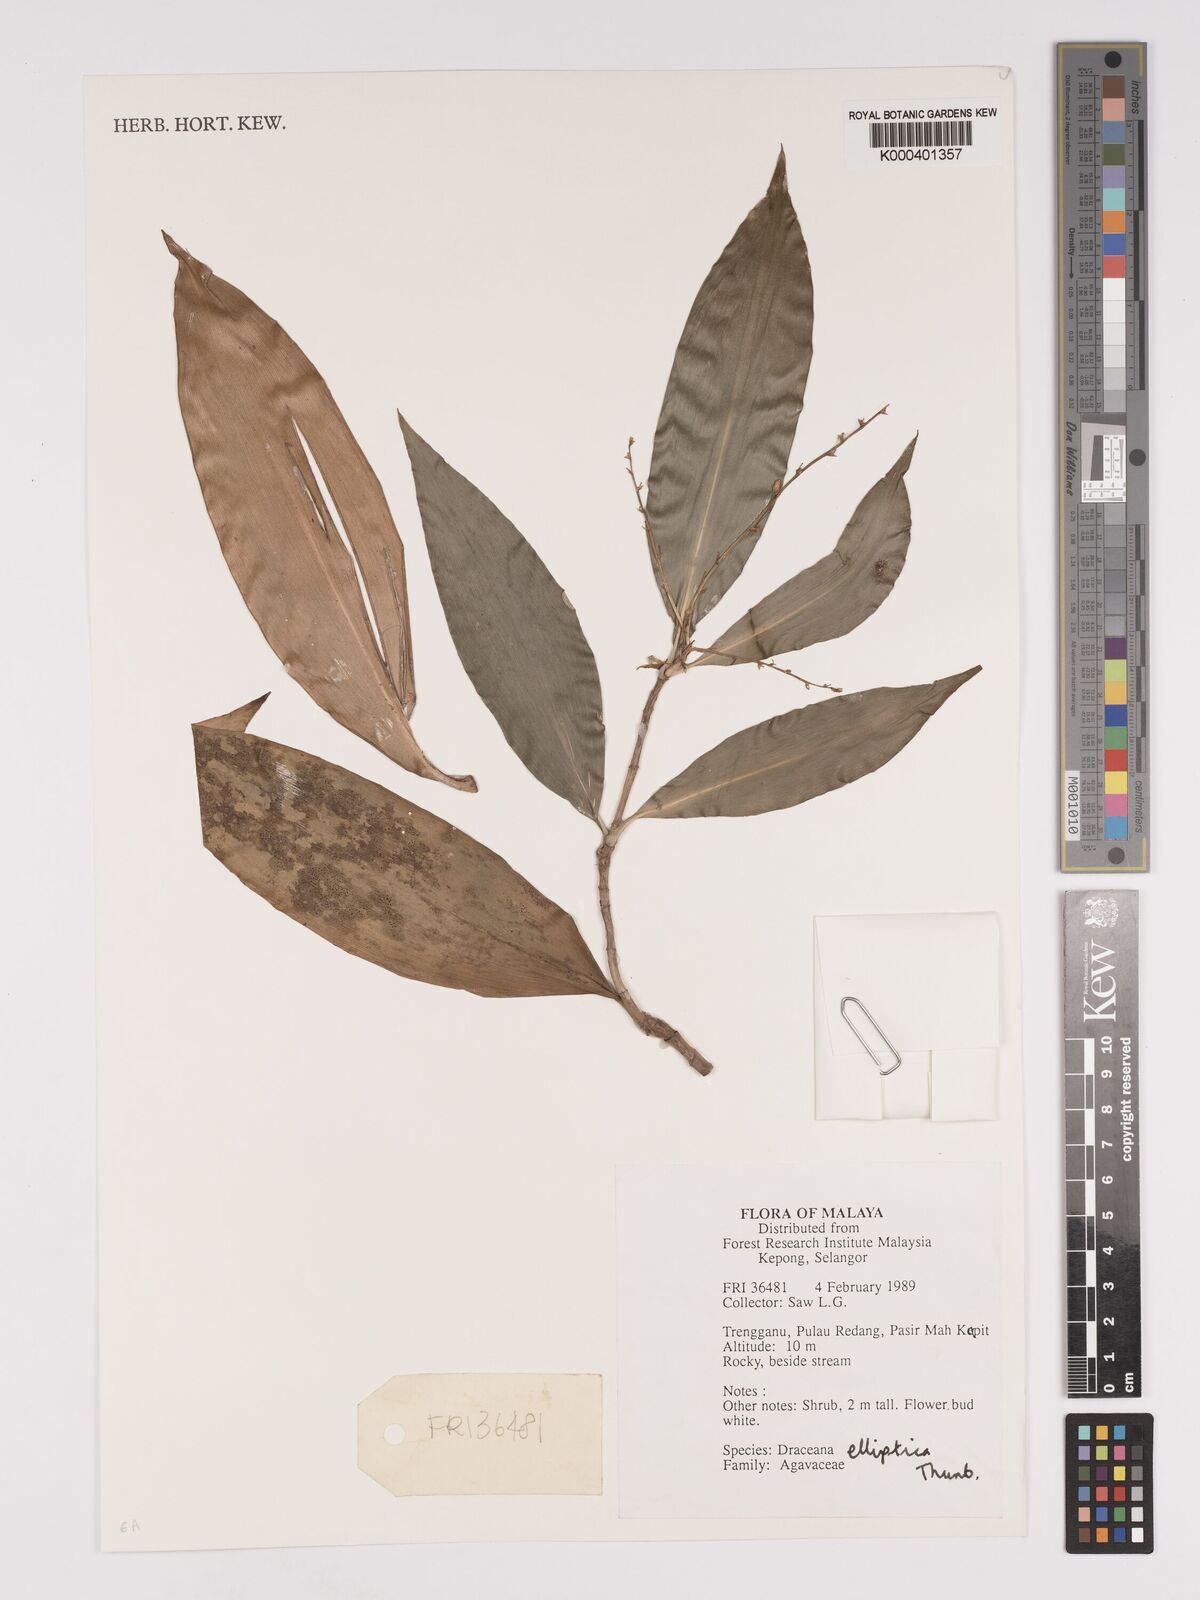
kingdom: Plantae
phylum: Tracheophyta
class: Liliopsida
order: Asparagales
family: Asparagaceae
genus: Dracaena
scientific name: Dracaena elliptica
